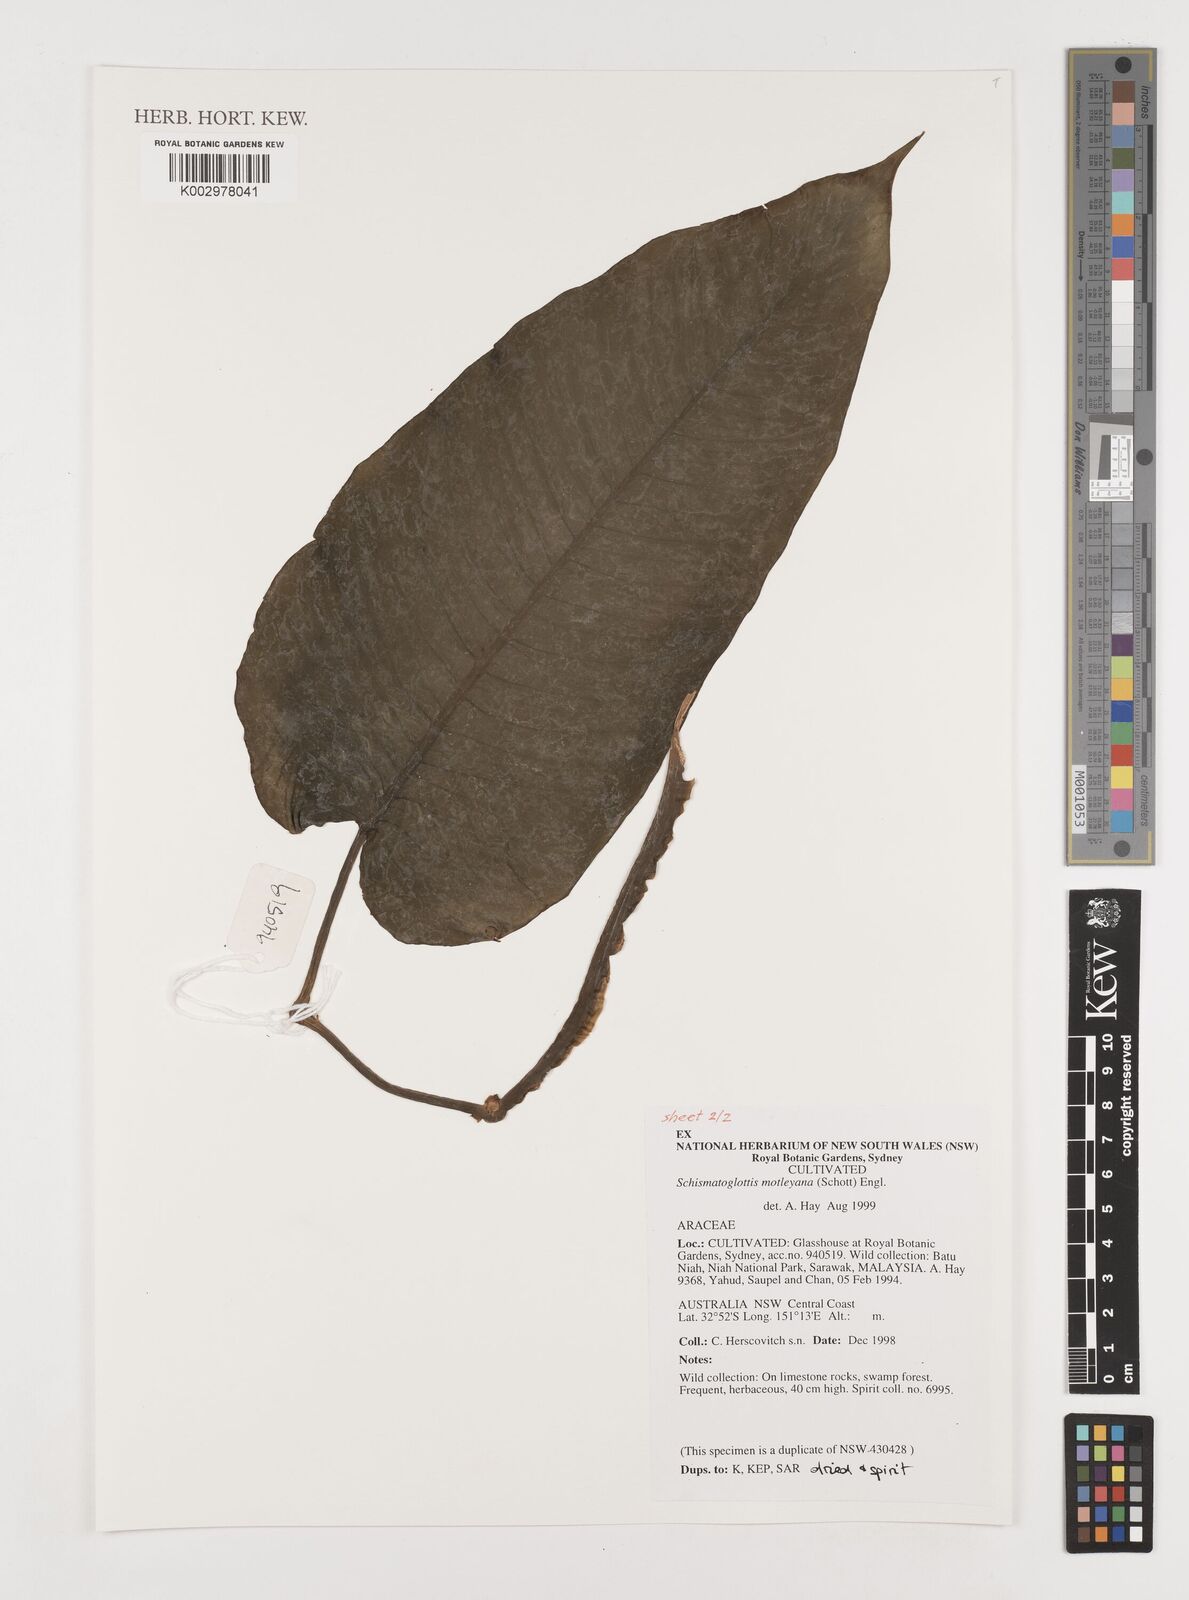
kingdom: Plantae
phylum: Tracheophyta
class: Liliopsida
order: Alismatales
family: Araceae
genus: Schismatoglottis
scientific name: Schismatoglottis motleyana
